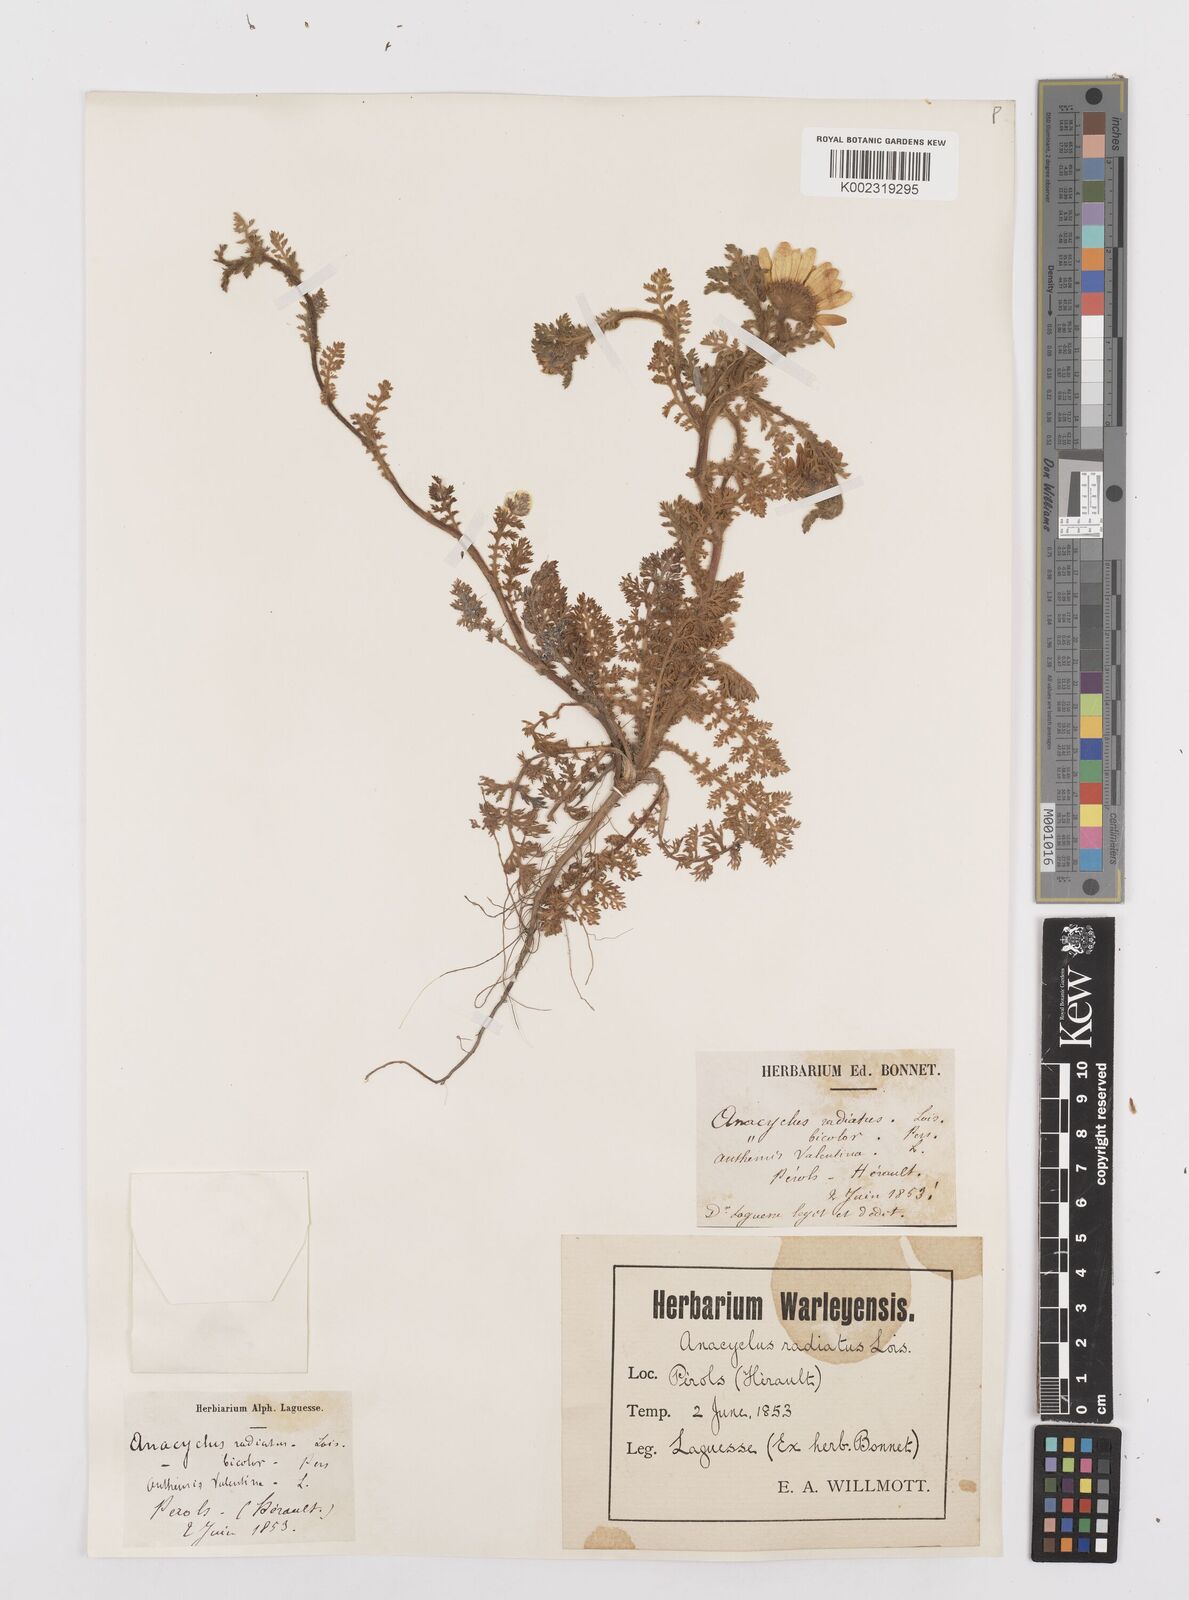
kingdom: Plantae
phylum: Tracheophyta
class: Magnoliopsida
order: Asterales
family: Asteraceae
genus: Anacyclus
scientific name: Anacyclus radiatus
